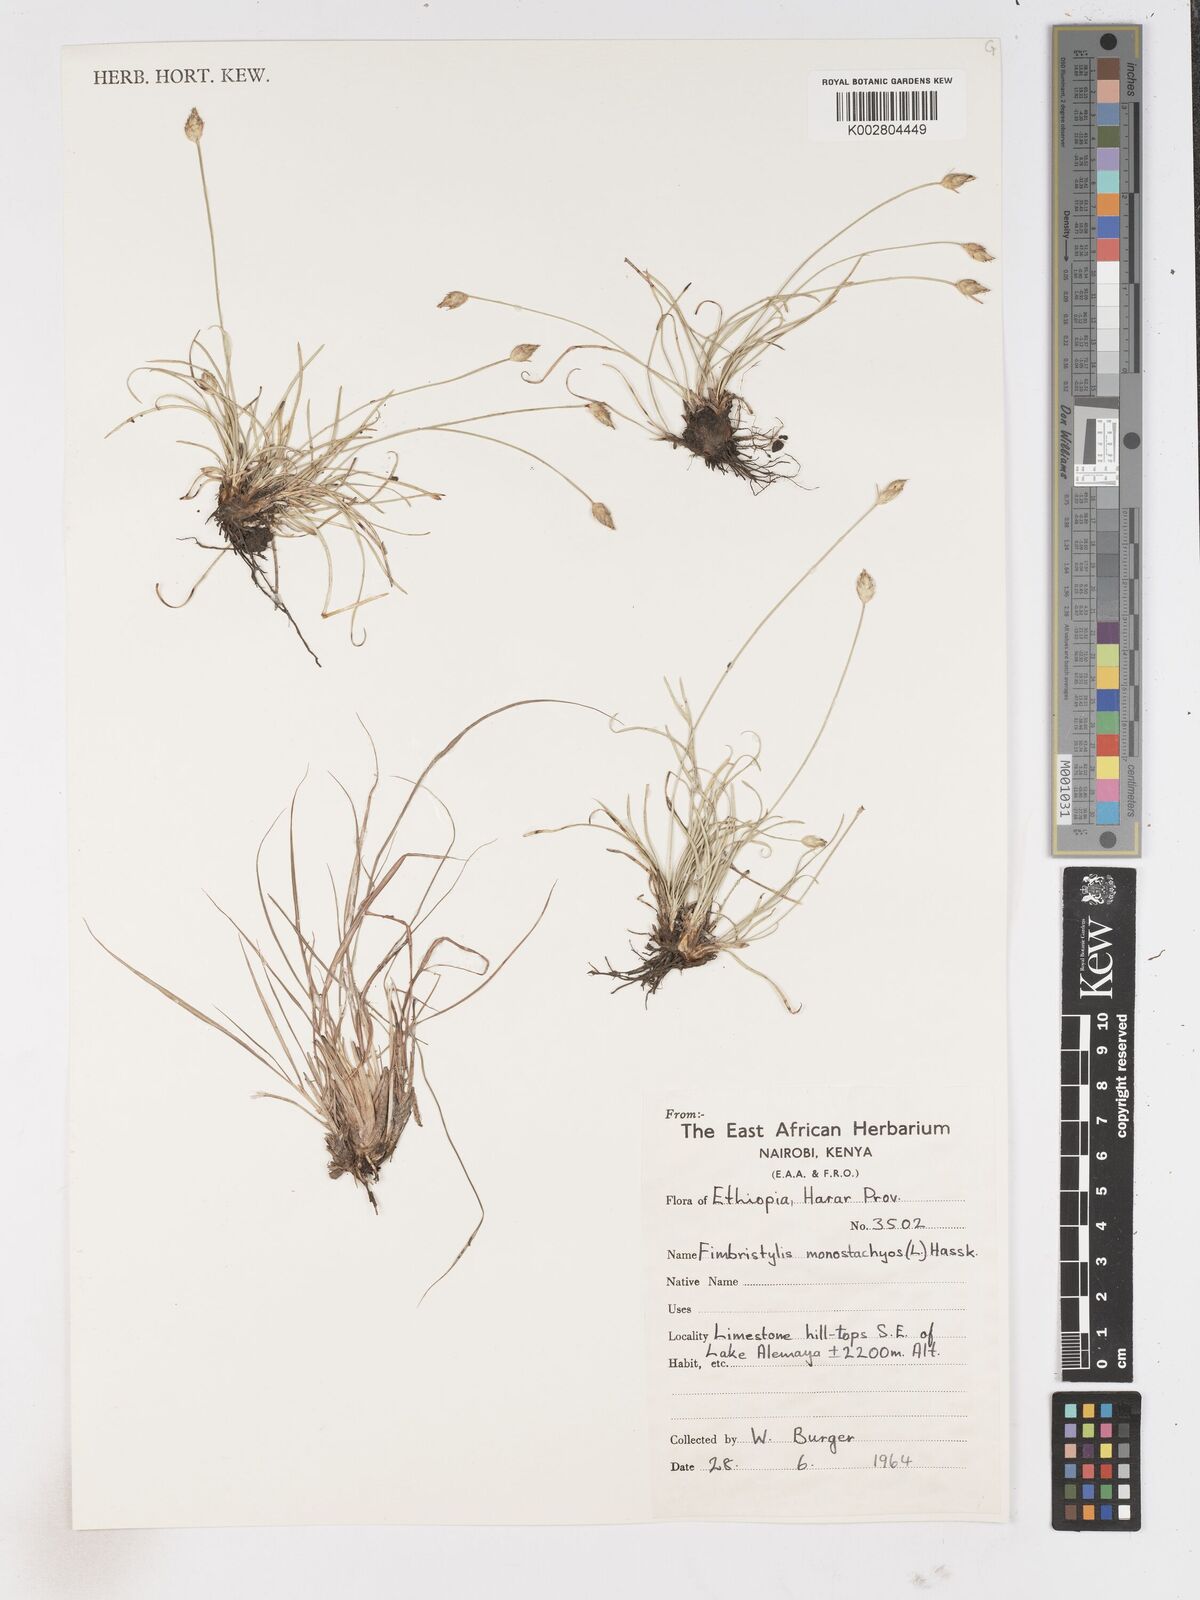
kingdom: Plantae
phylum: Tracheophyta
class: Liliopsida
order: Poales
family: Cyperaceae
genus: Abildgaardia
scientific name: Abildgaardia ovata
